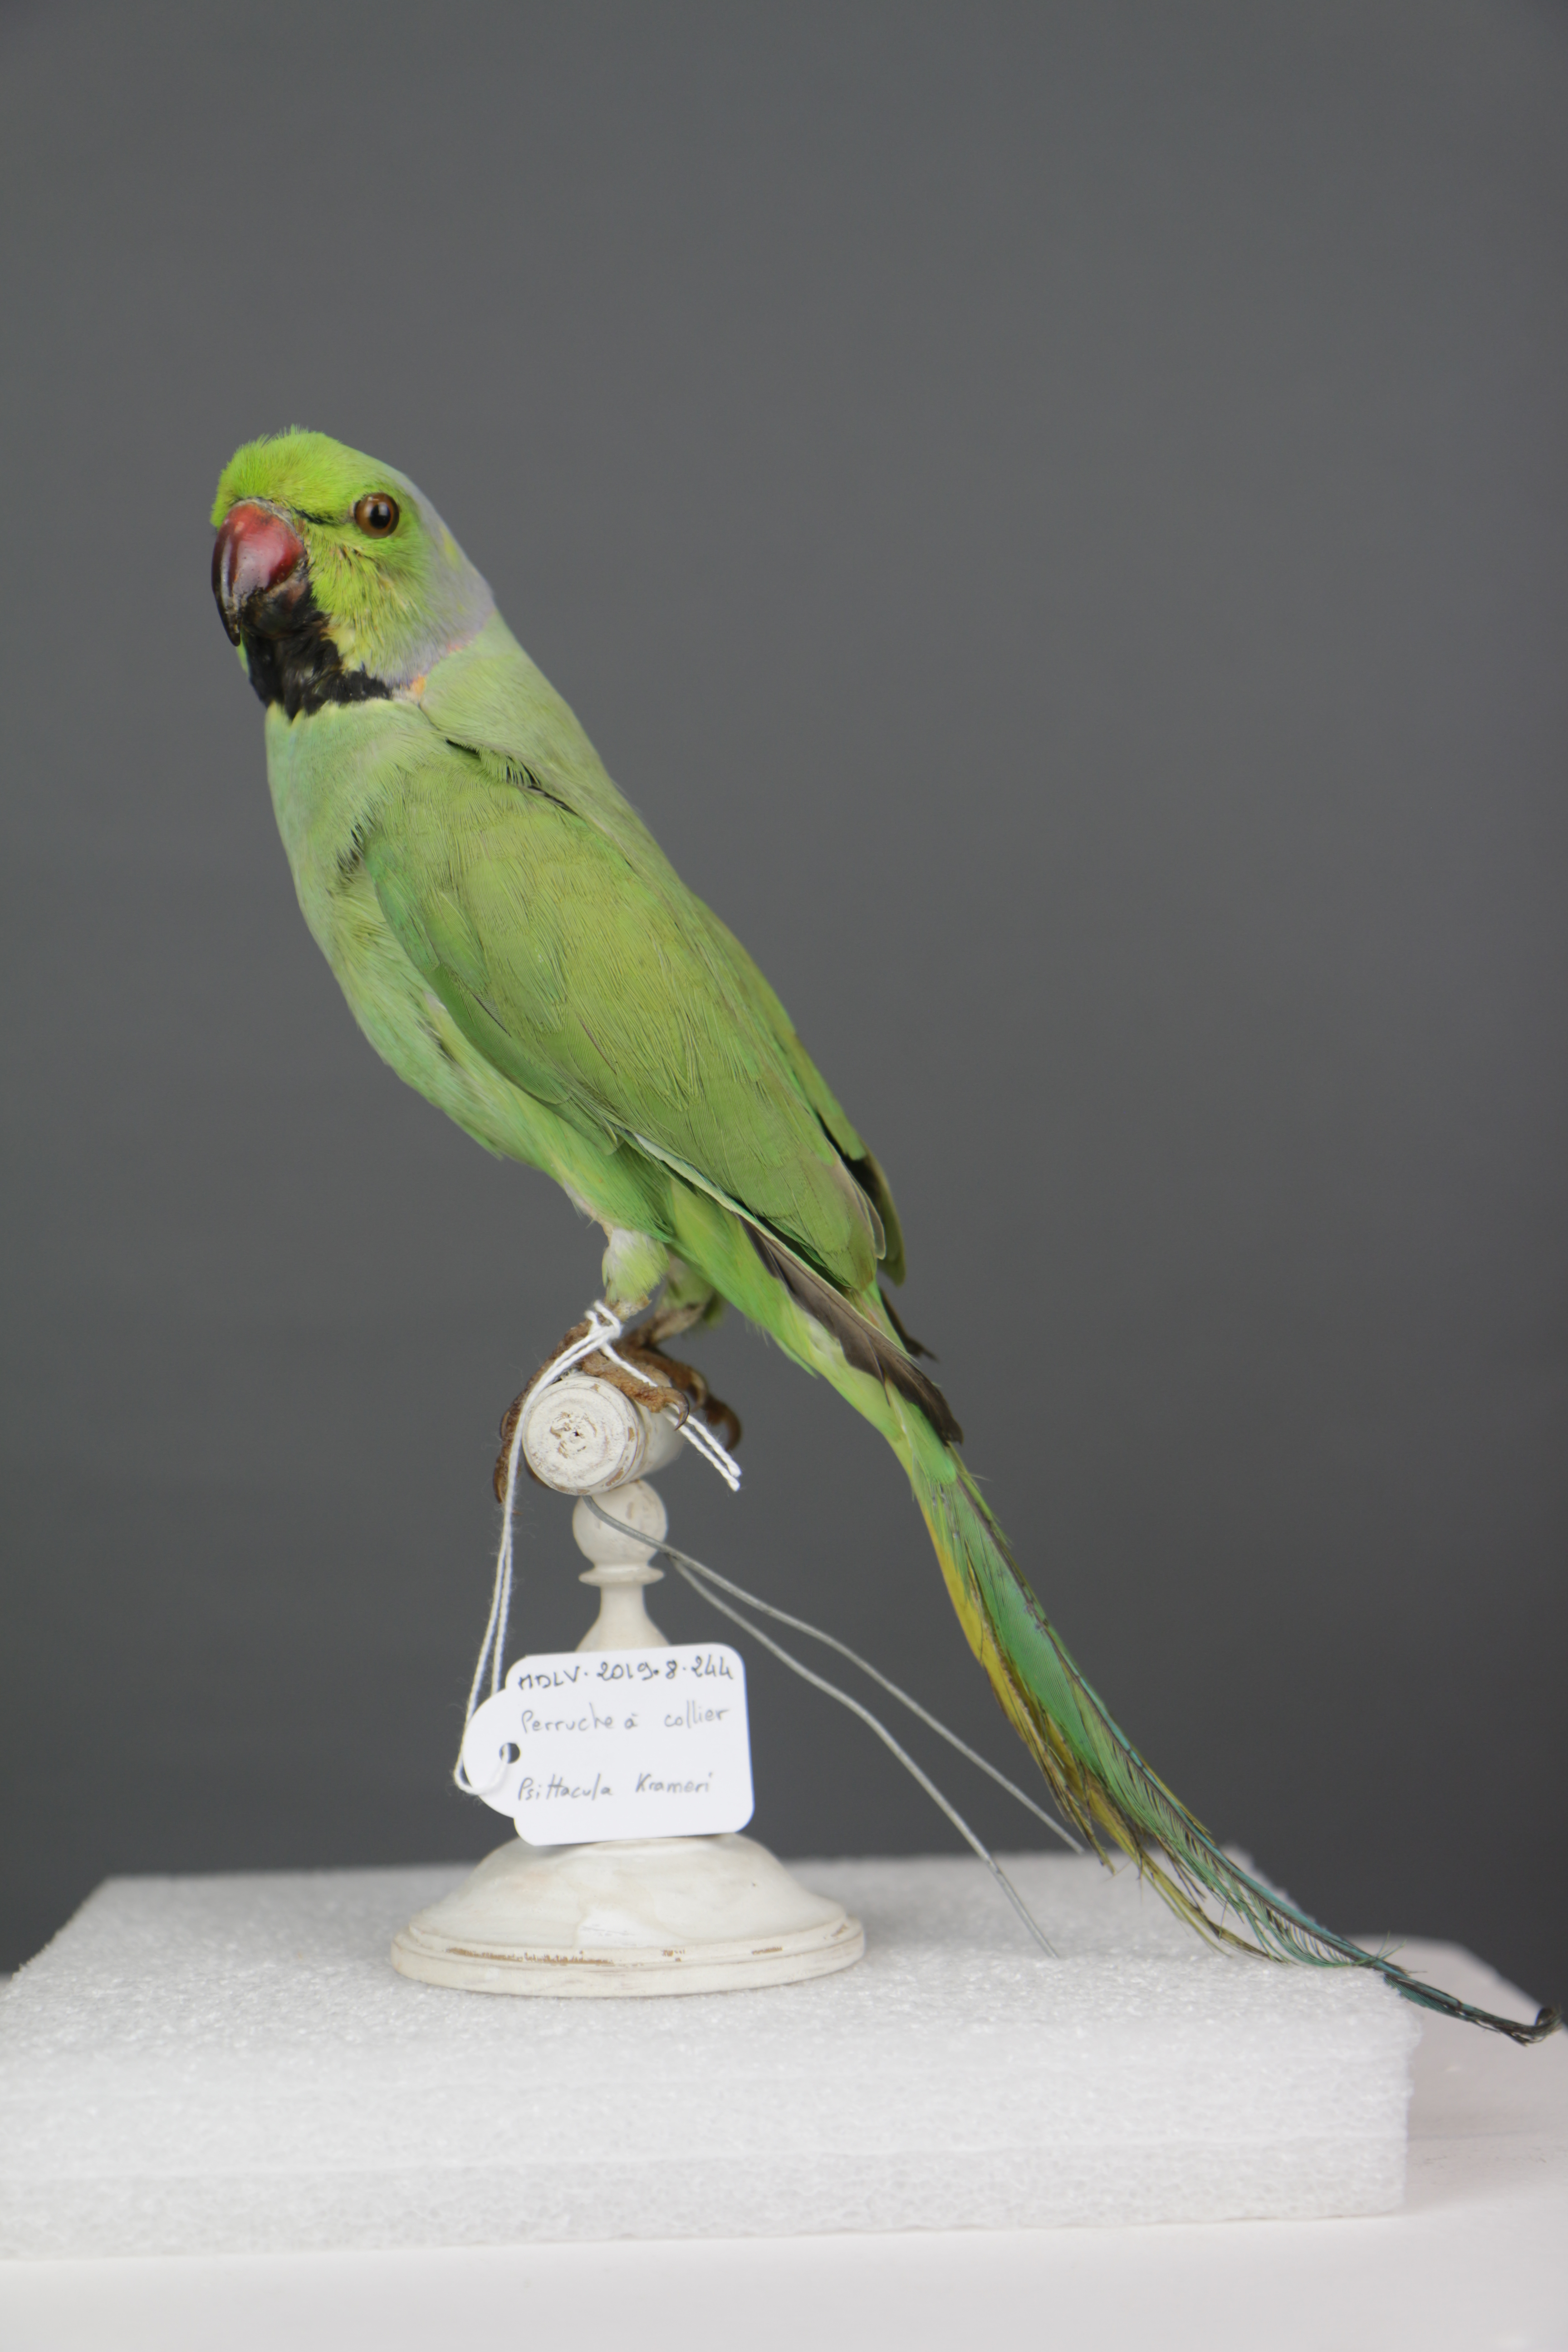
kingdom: Animalia
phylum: Chordata
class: Aves
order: Psittaciformes
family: Psittacidae
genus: Psittacula
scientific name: Psittacula krameri
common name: Rose-ringed parakeet
